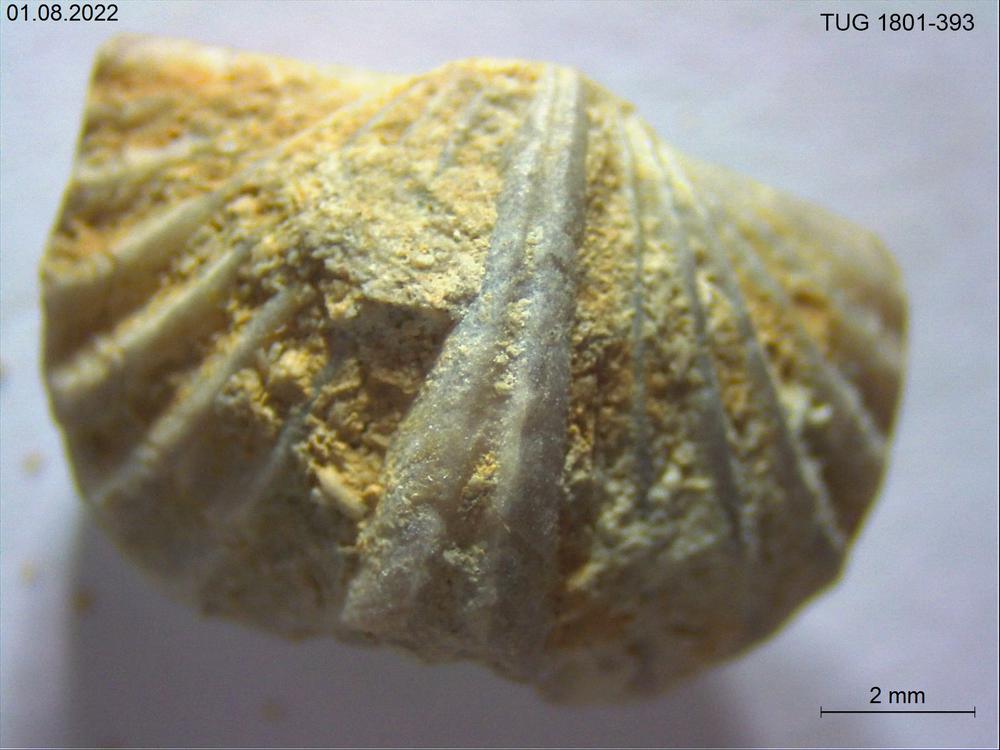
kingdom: Animalia
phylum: Brachiopoda
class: Rhynchonellata
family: Plectorthidae
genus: Platystrophia
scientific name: Platystrophia crassoplicata
